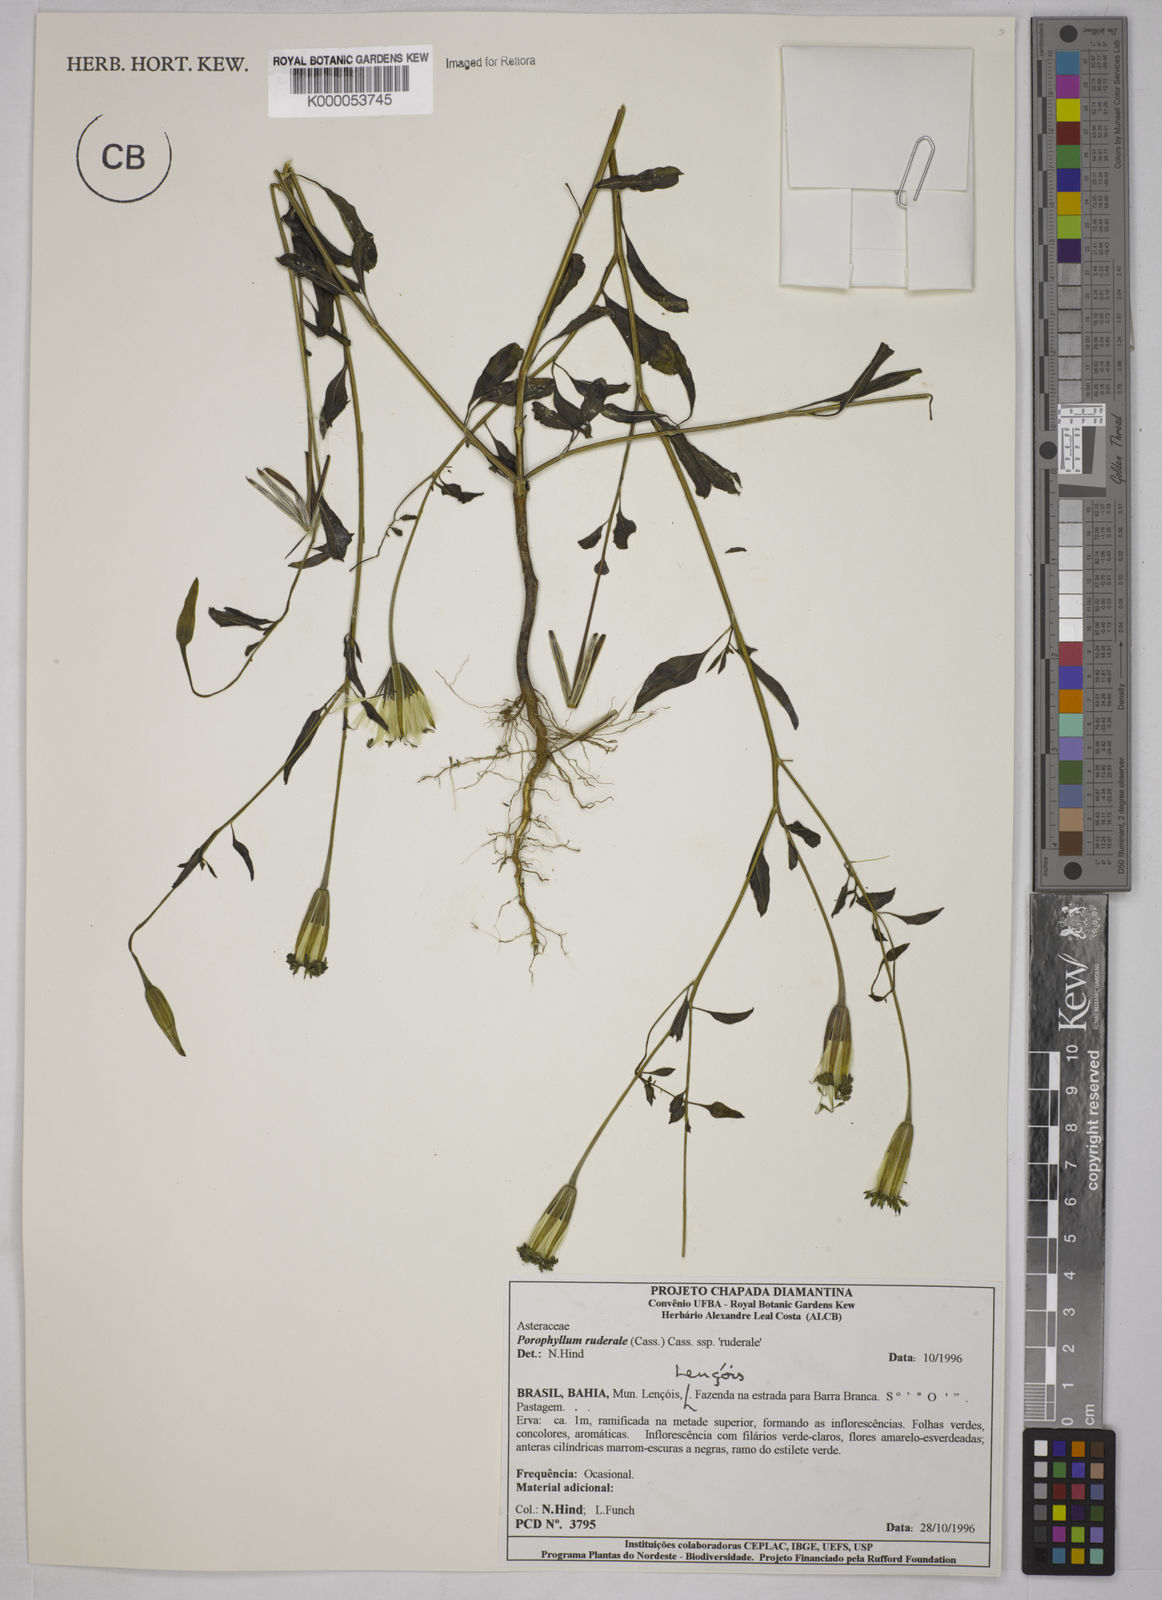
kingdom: Plantae
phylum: Tracheophyta
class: Magnoliopsida
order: Asterales
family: Asteraceae
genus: Porophyllum
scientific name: Porophyllum ruderale
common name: Yerba porosa
